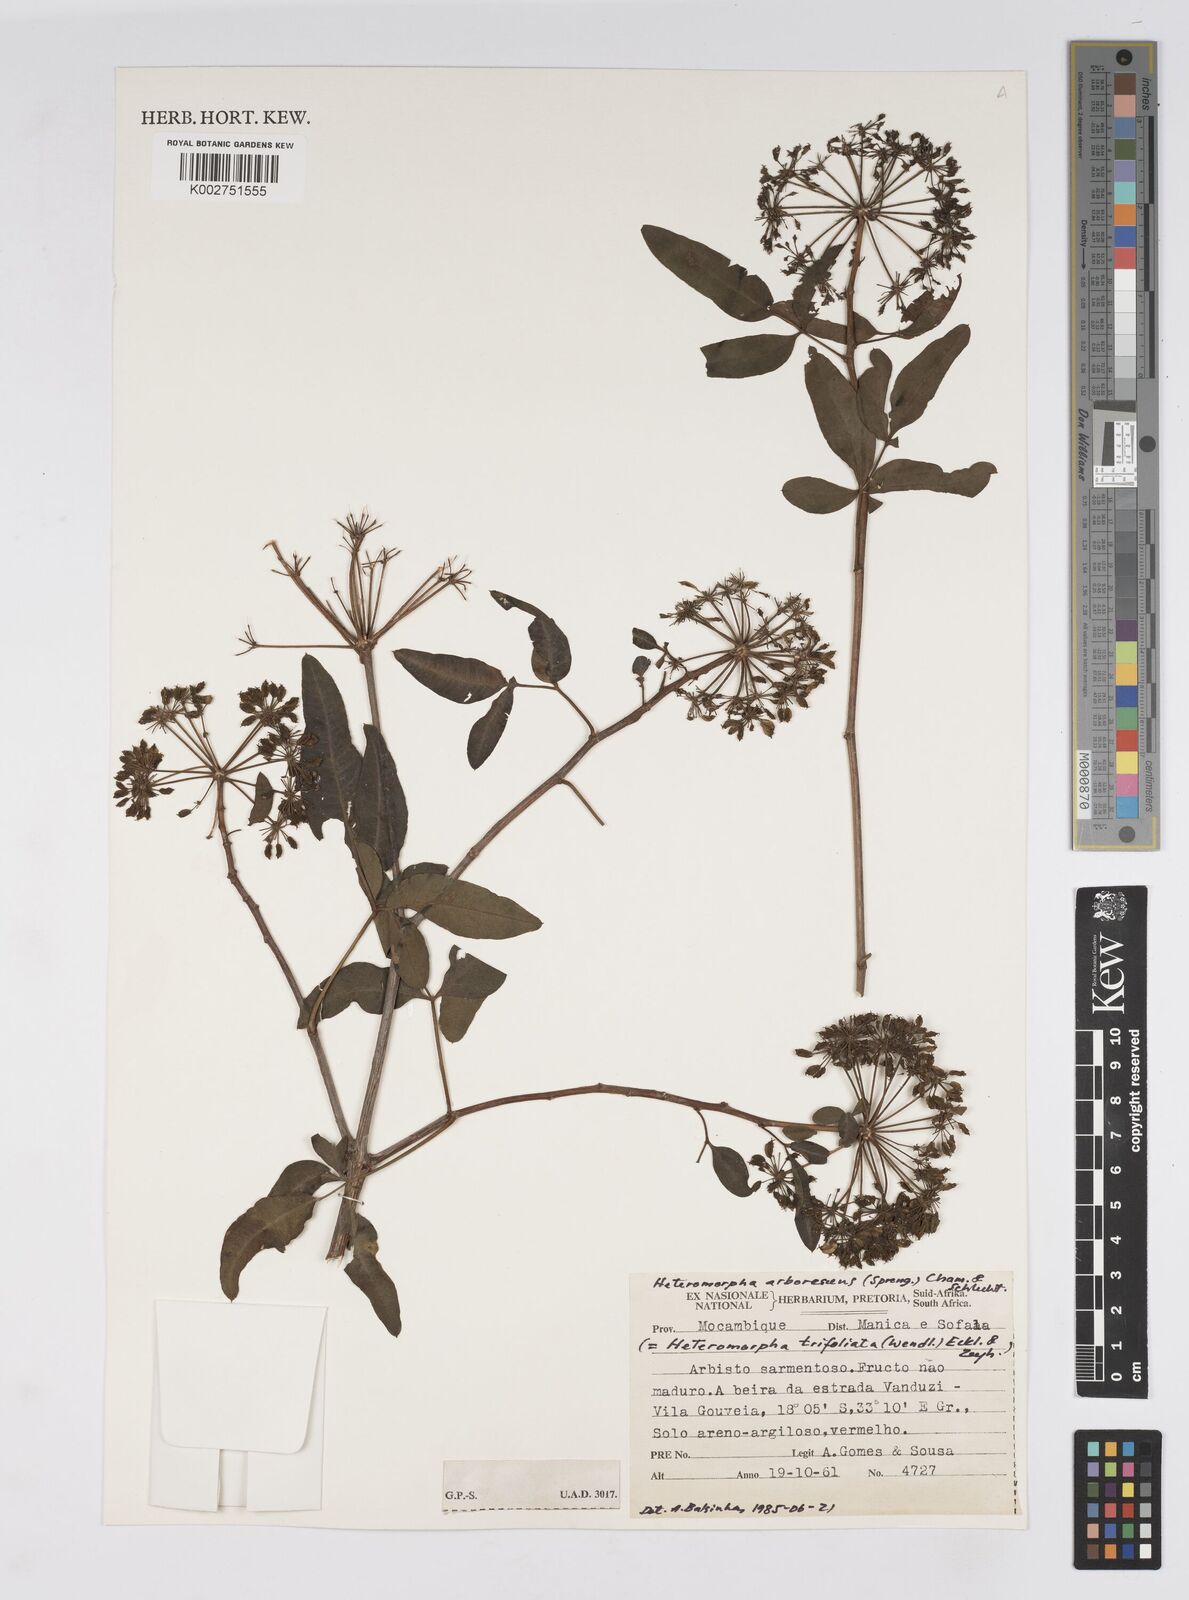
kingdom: Plantae
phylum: Tracheophyta
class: Magnoliopsida
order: Apiales
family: Apiaceae
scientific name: Apiaceae
